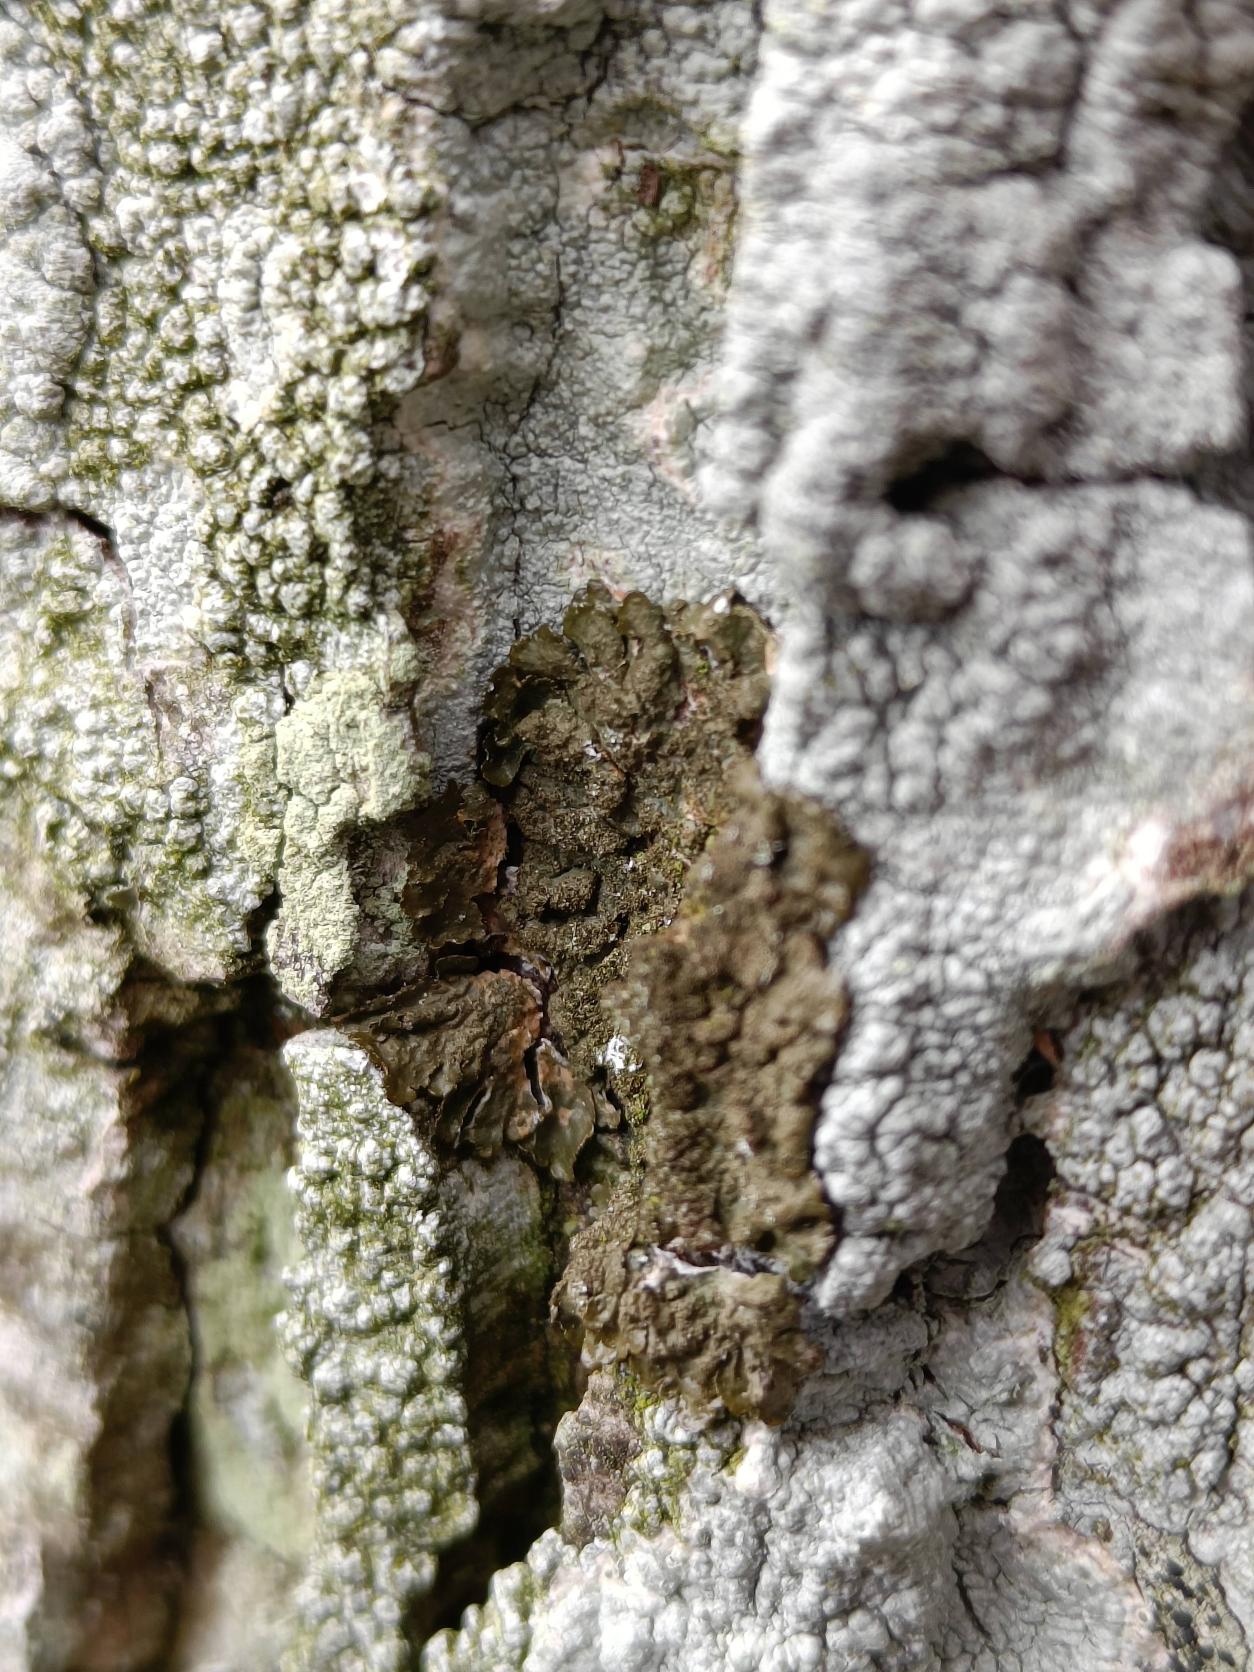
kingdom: Fungi
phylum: Ascomycota
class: Lecanoromycetes
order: Lecanorales
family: Parmeliaceae
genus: Melanelixia
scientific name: Melanelixia glabratula
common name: Glinsende skållav
